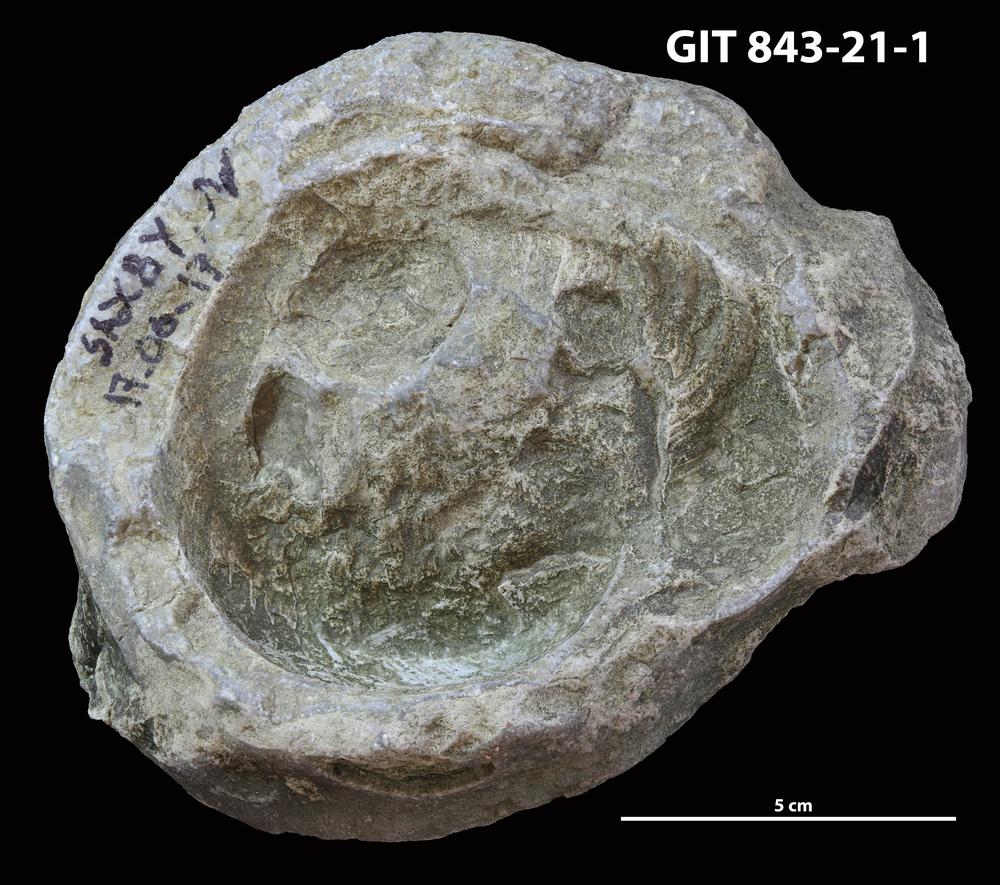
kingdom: Animalia
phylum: Mollusca
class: Cephalopoda
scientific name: Cephalopoda
